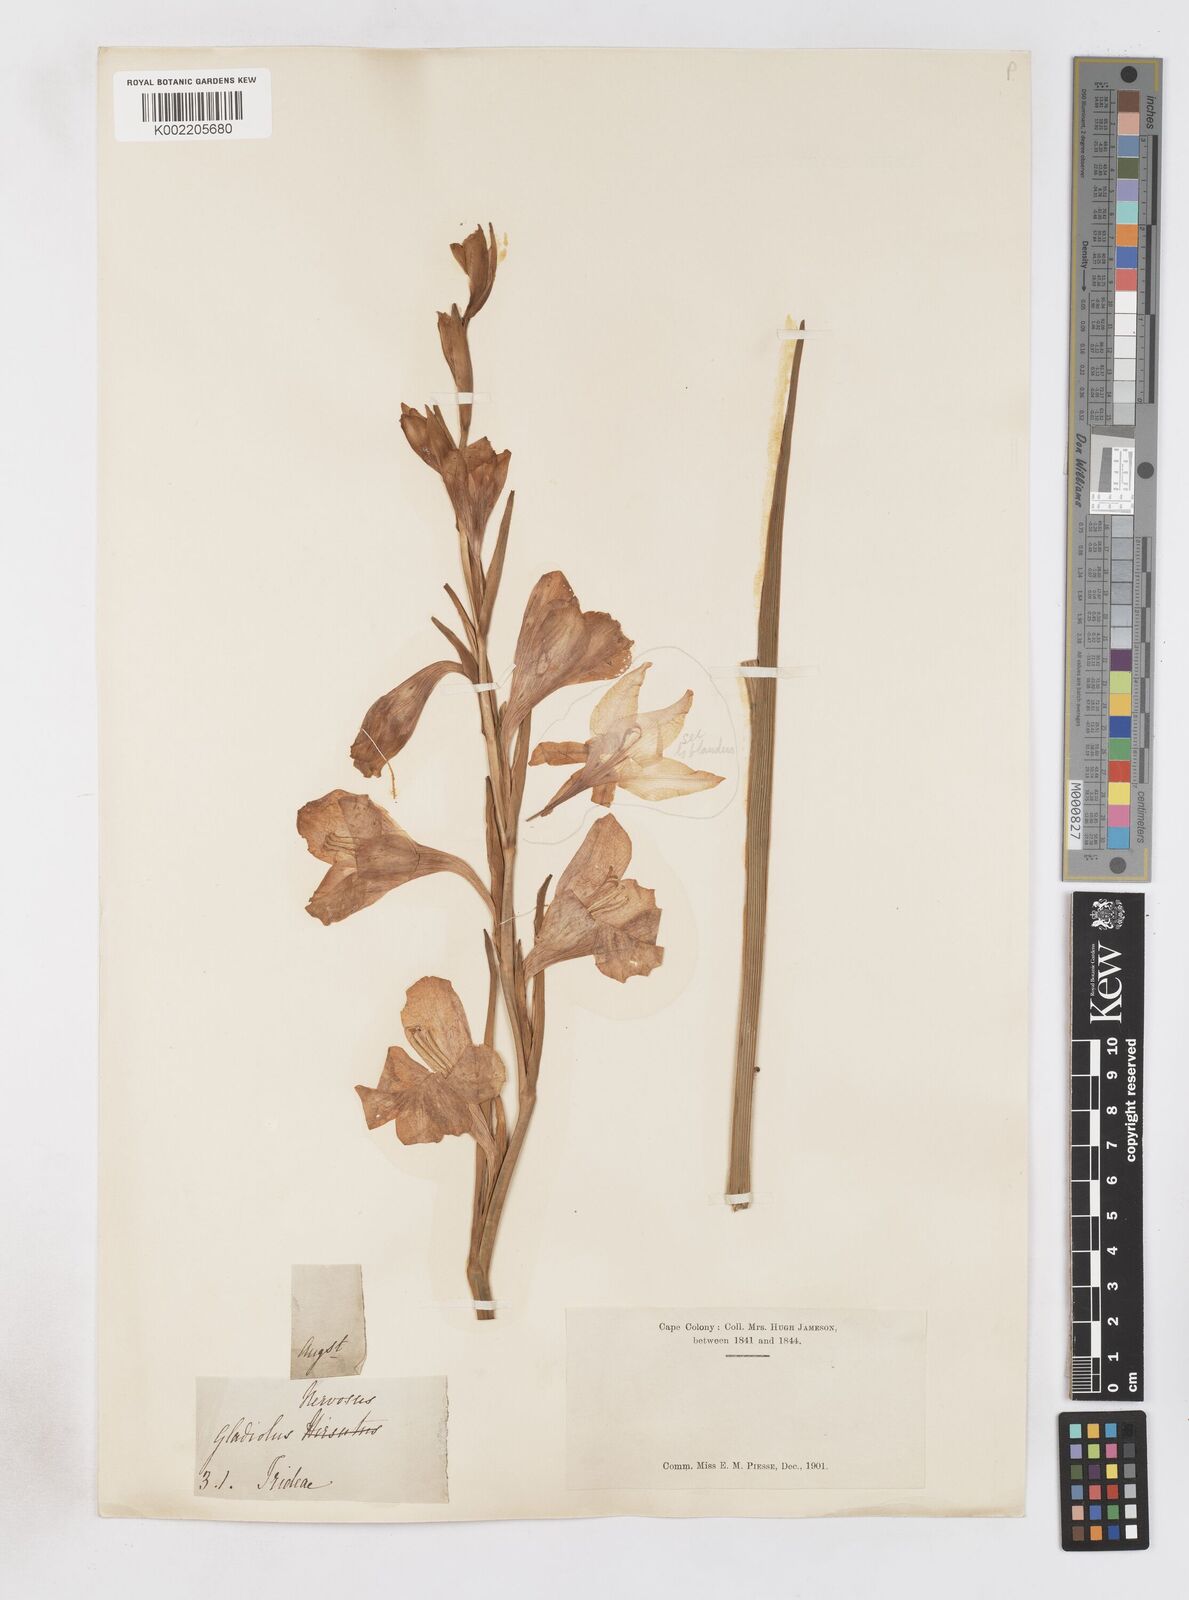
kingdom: Plantae
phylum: Tracheophyta
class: Liliopsida
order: Asparagales
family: Iridaceae
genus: Gladiolus
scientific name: Gladiolus caryophyllaceus
